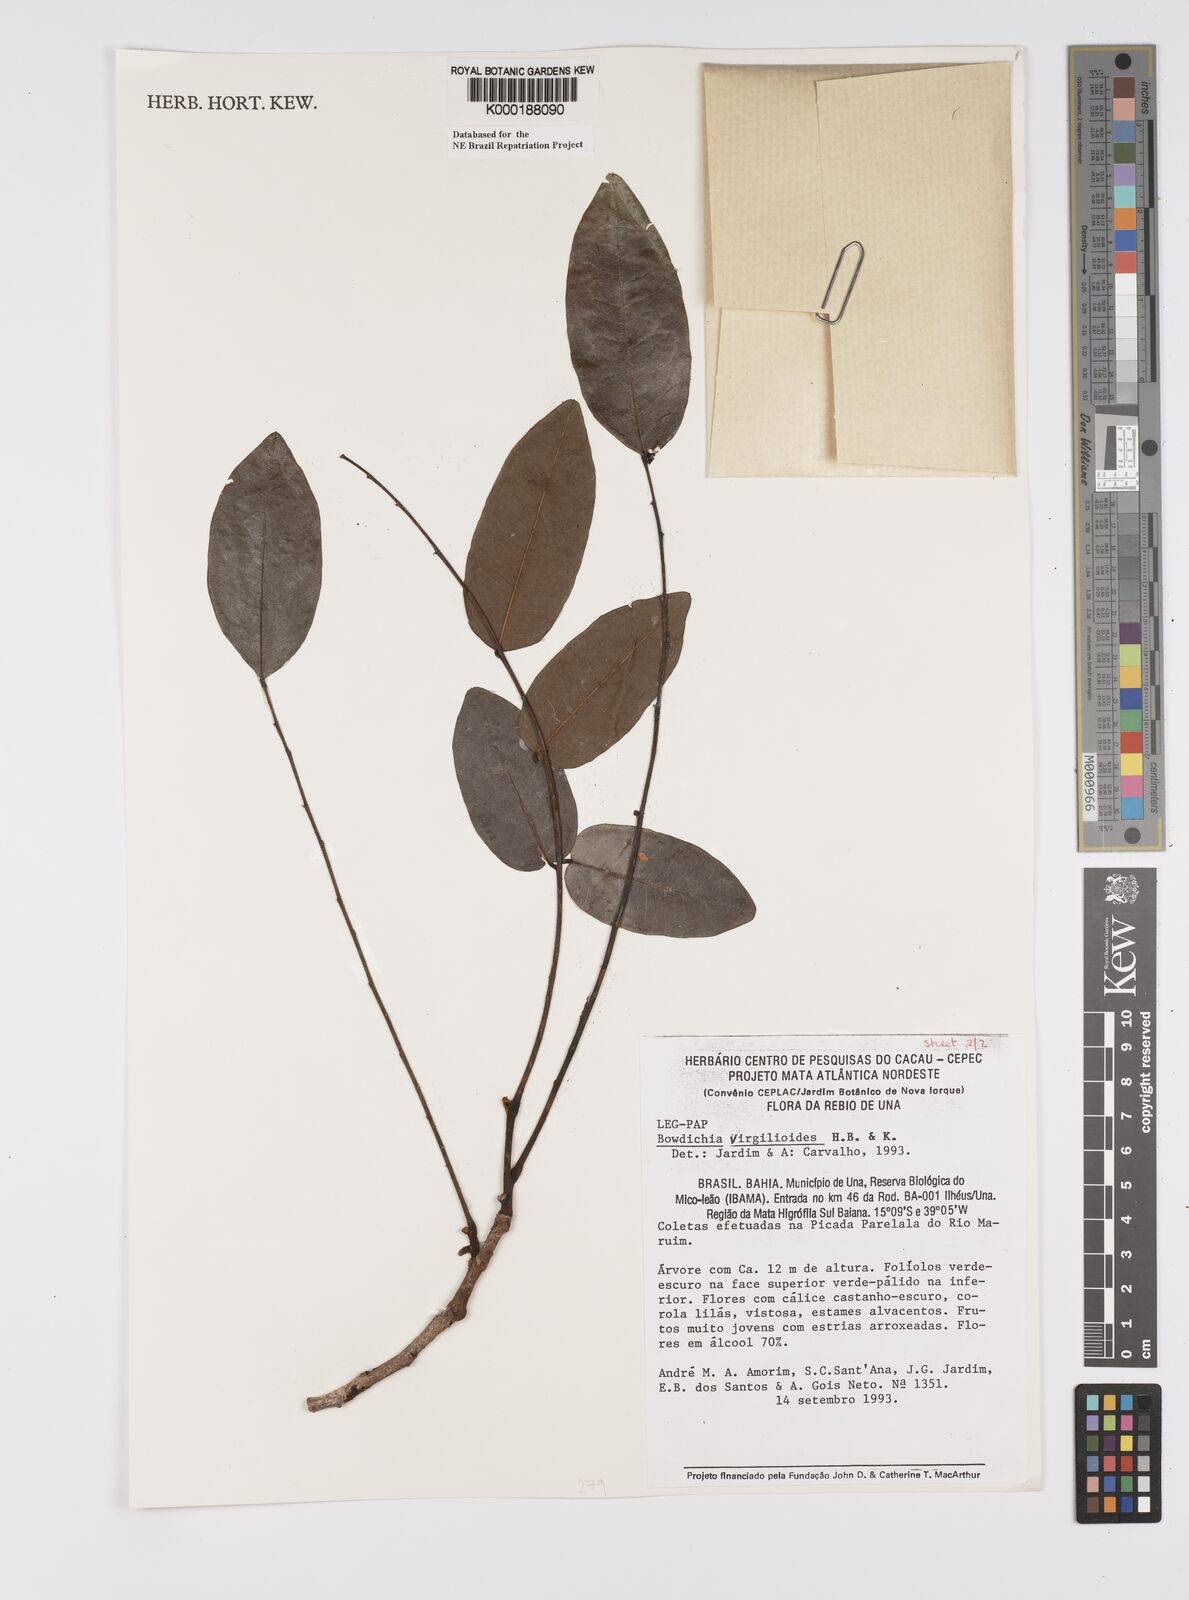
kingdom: Plantae
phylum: Tracheophyta
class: Magnoliopsida
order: Fabales
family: Fabaceae
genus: Bowdichia
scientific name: Bowdichia virgilioides
